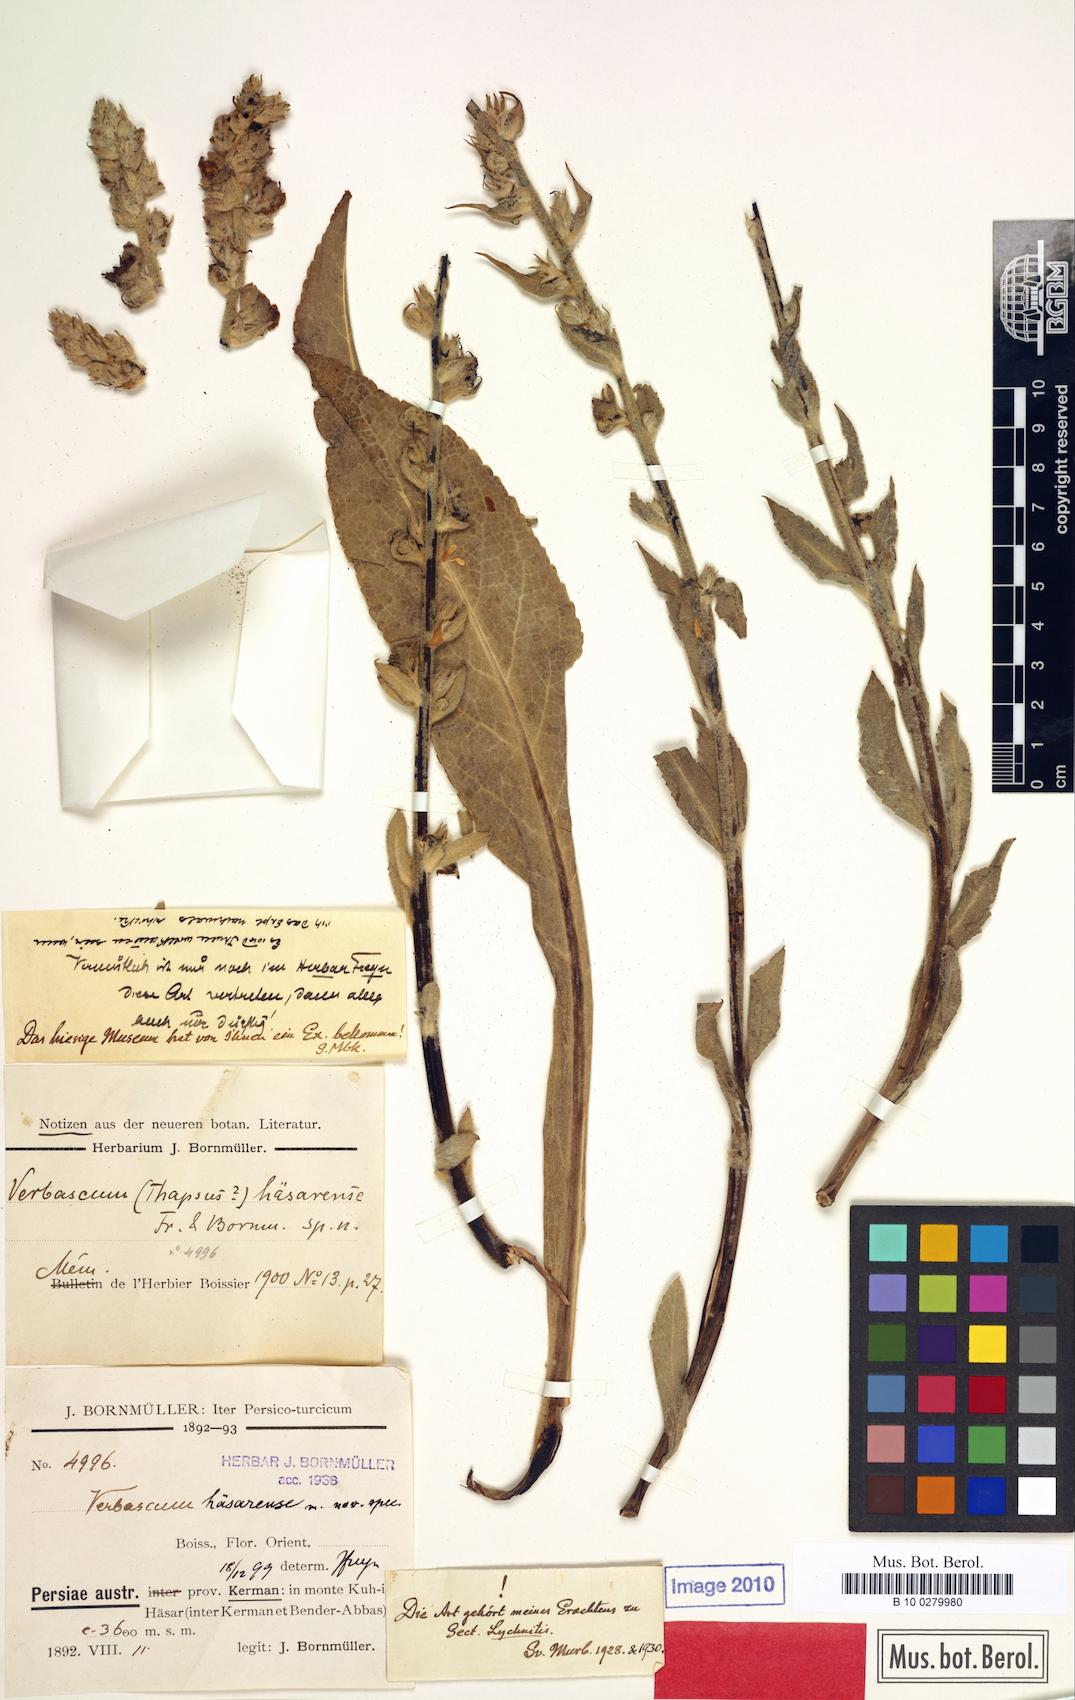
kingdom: Plantae
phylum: Tracheophyta
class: Magnoliopsida
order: Lamiales
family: Scrophulariaceae
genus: Verbascum
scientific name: Verbascum haesarense
